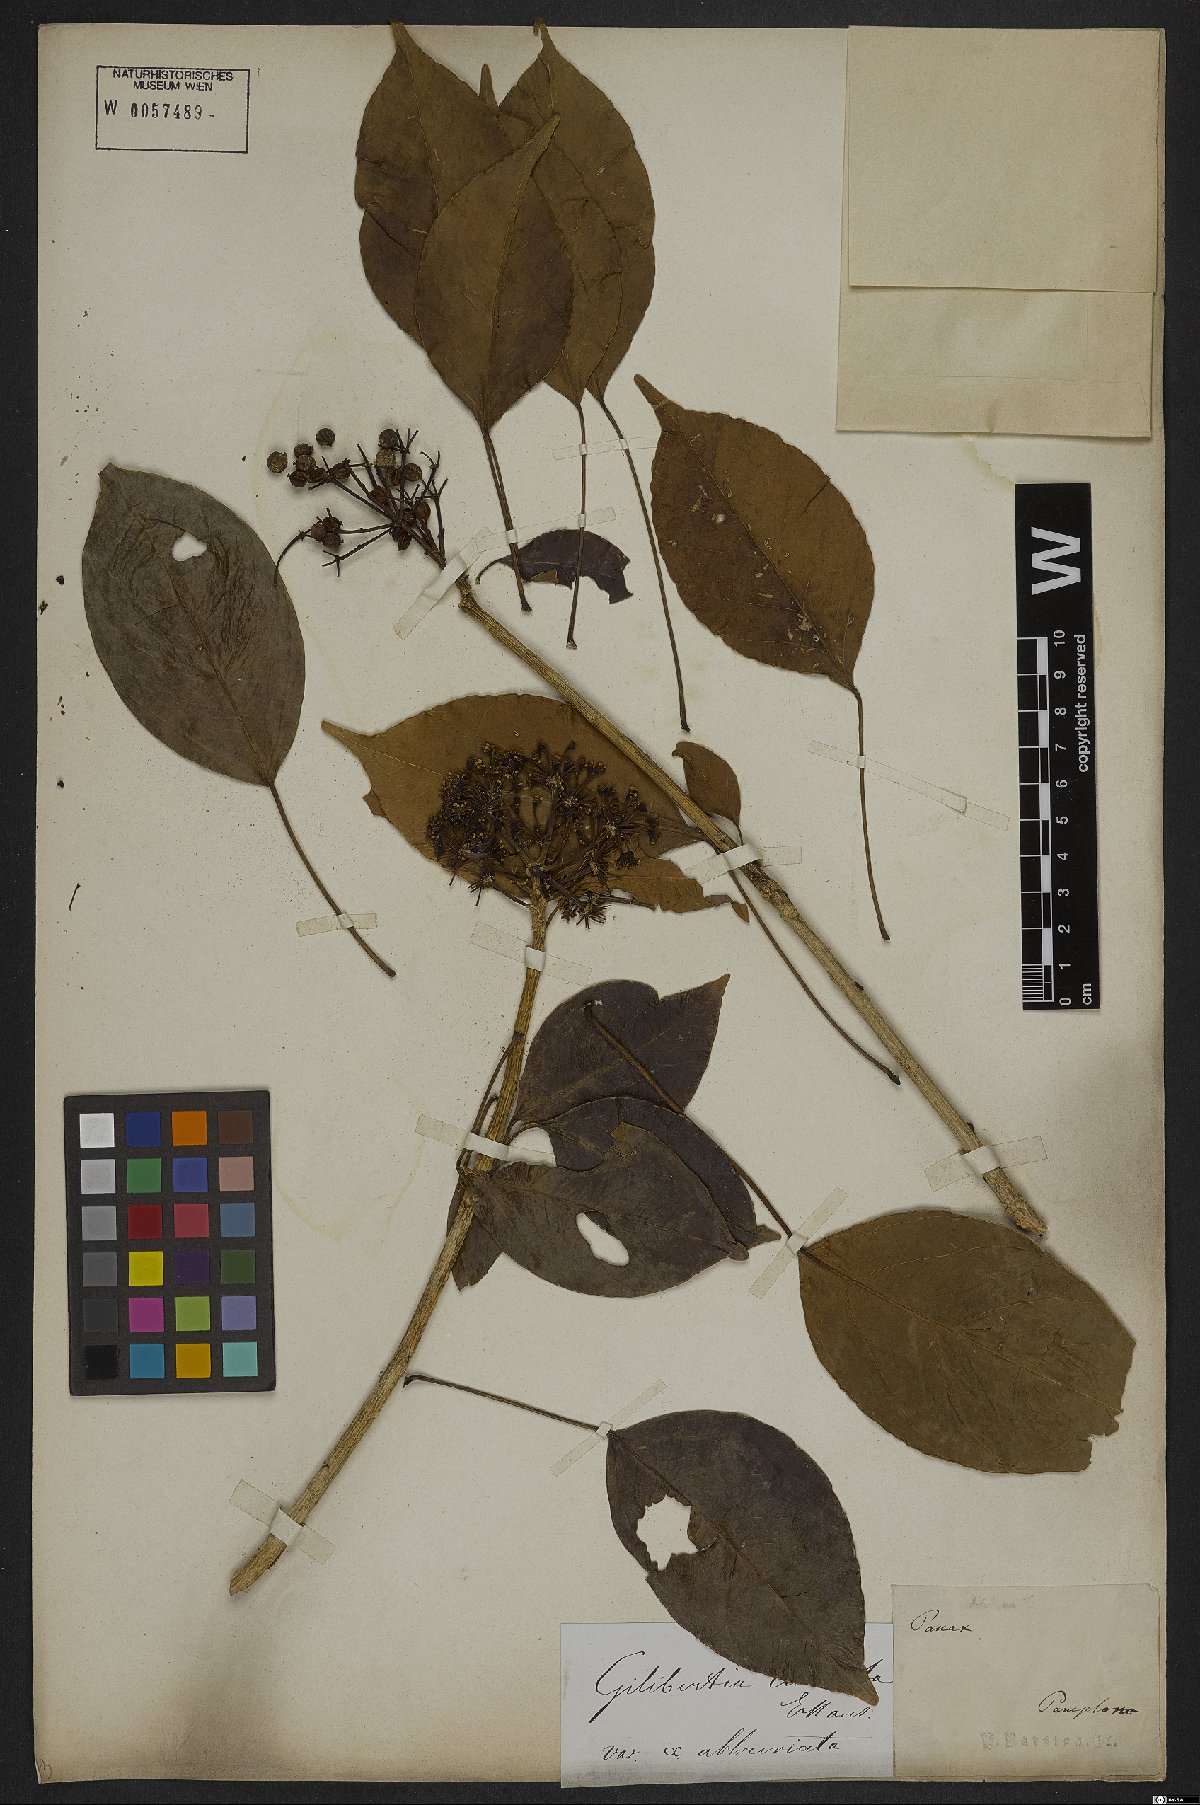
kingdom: Plantae
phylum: Tracheophyta
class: Magnoliopsida
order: Apiales
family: Araliaceae
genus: Dendropanax
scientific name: Dendropanax cuneatus
